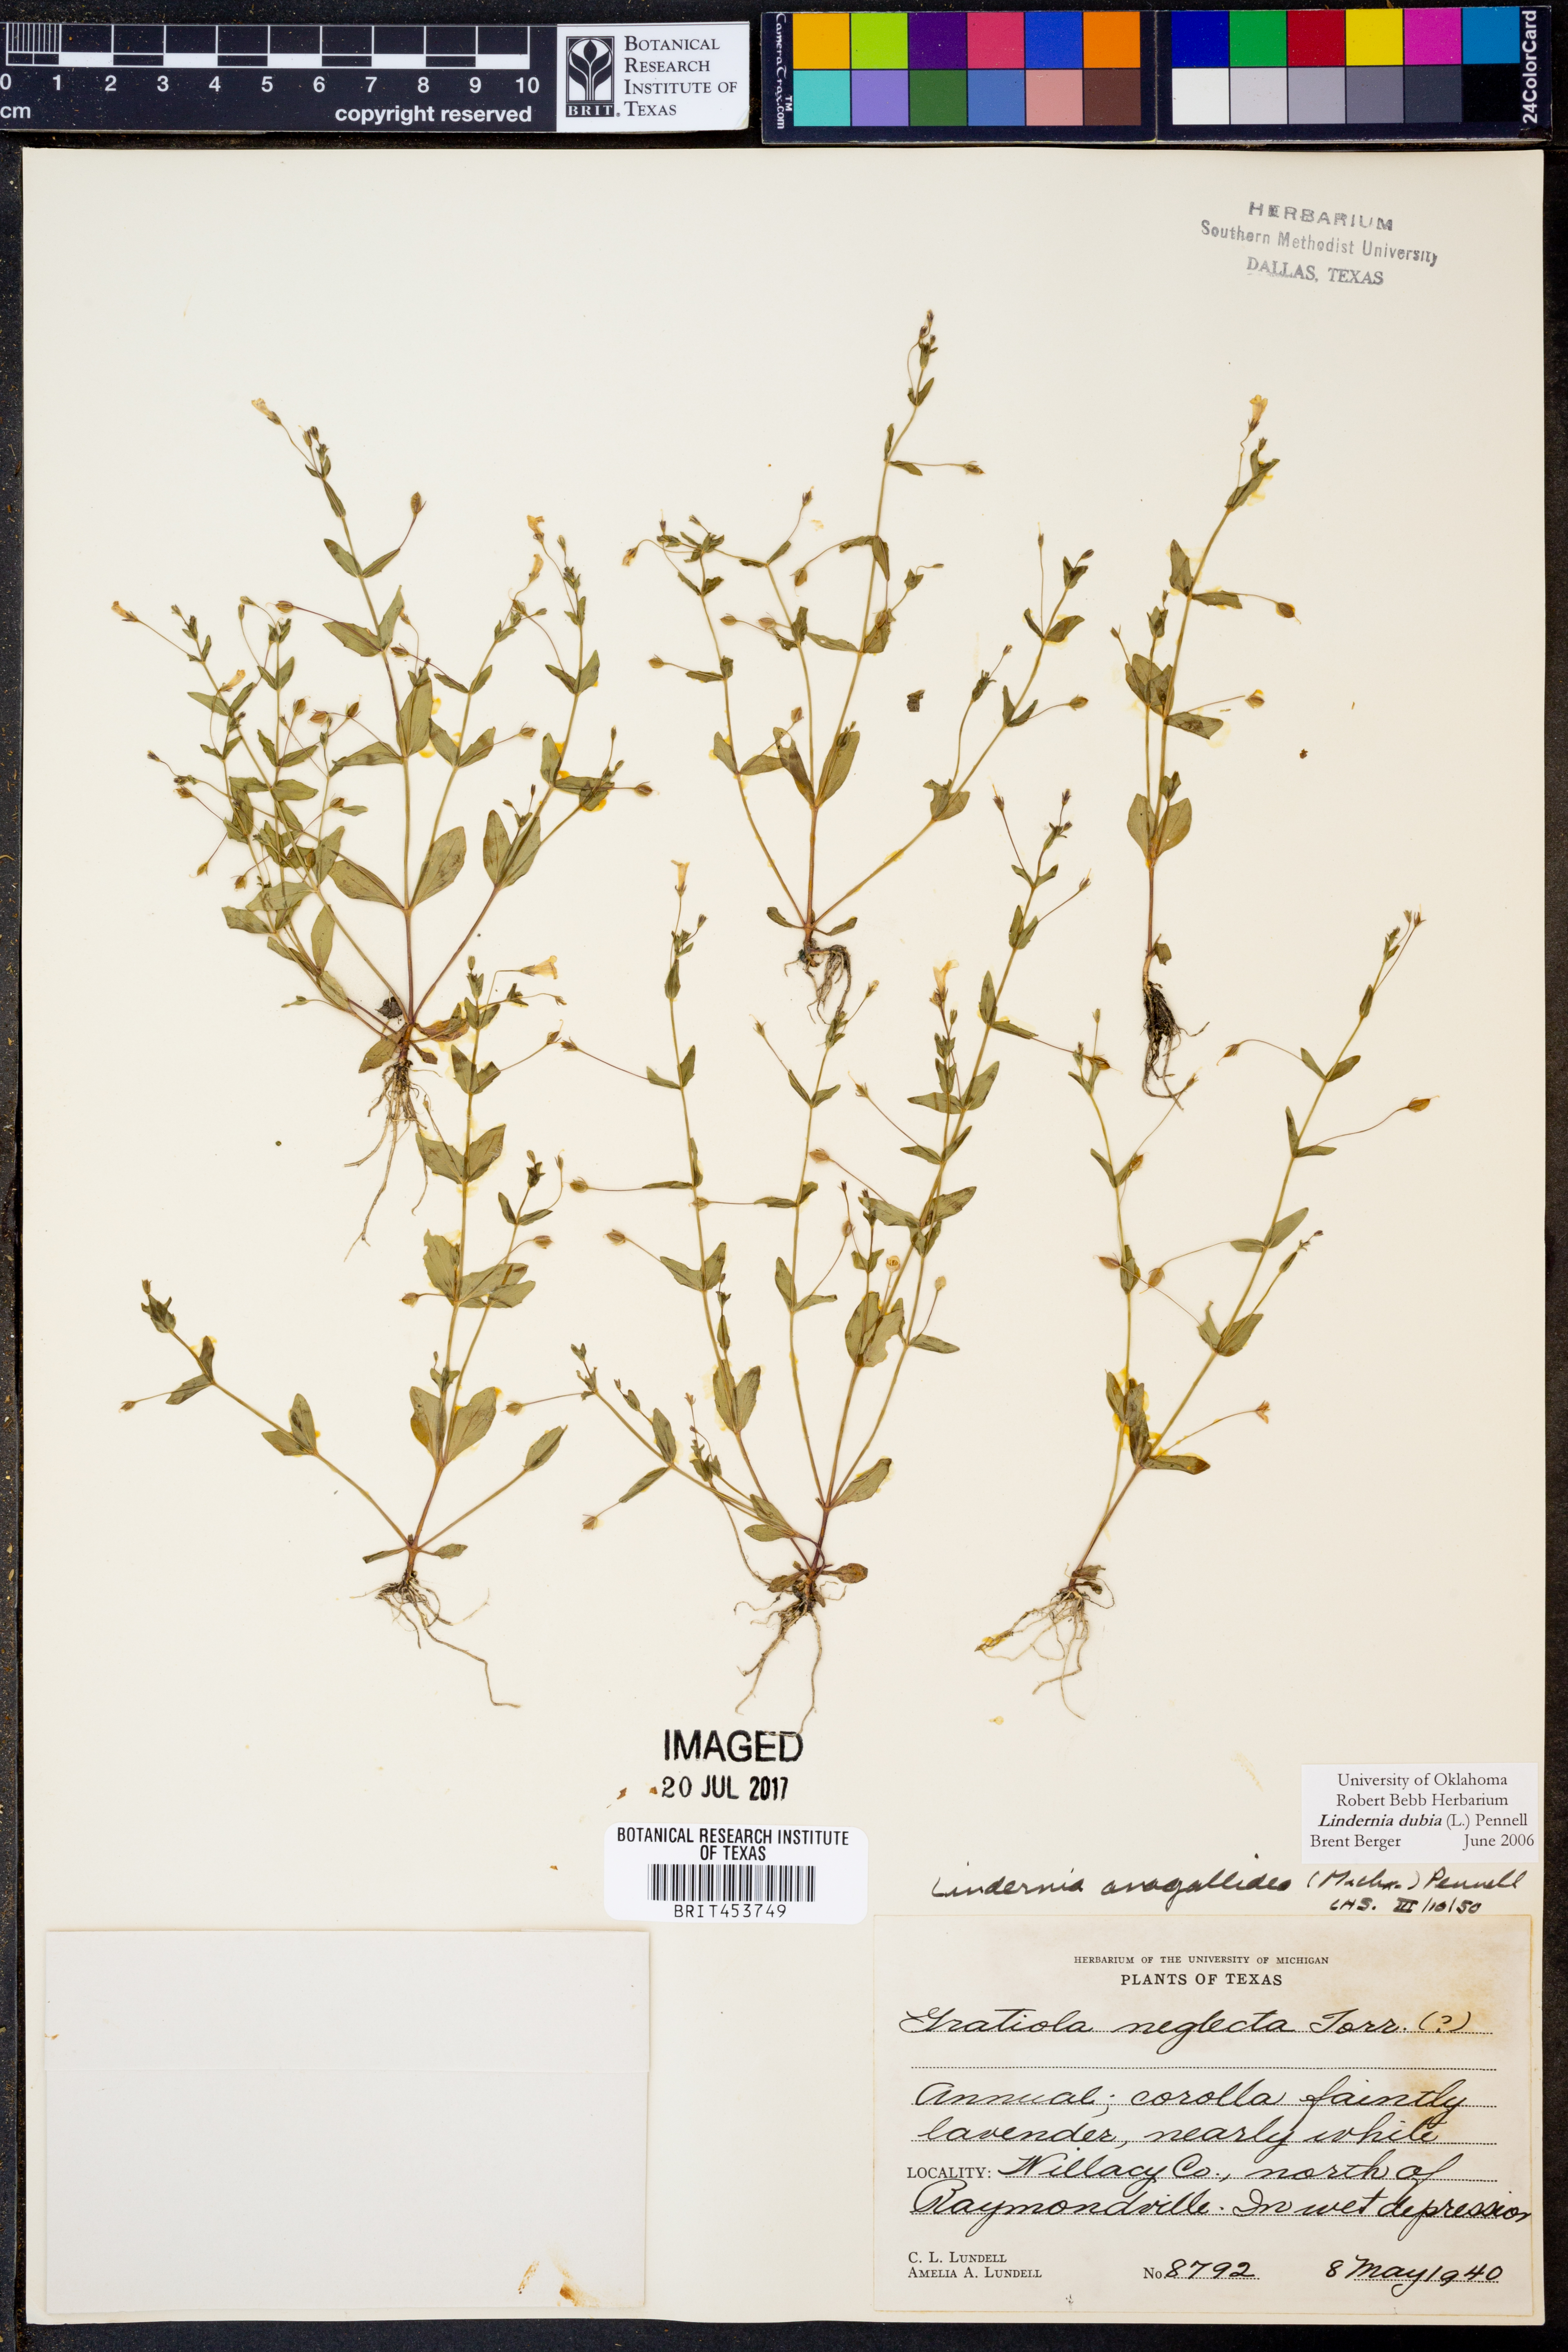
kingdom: Plantae
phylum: Tracheophyta
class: Magnoliopsida
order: Lamiales
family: Linderniaceae
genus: Lindernia
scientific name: Lindernia dubia
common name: Annual false pimpernel
